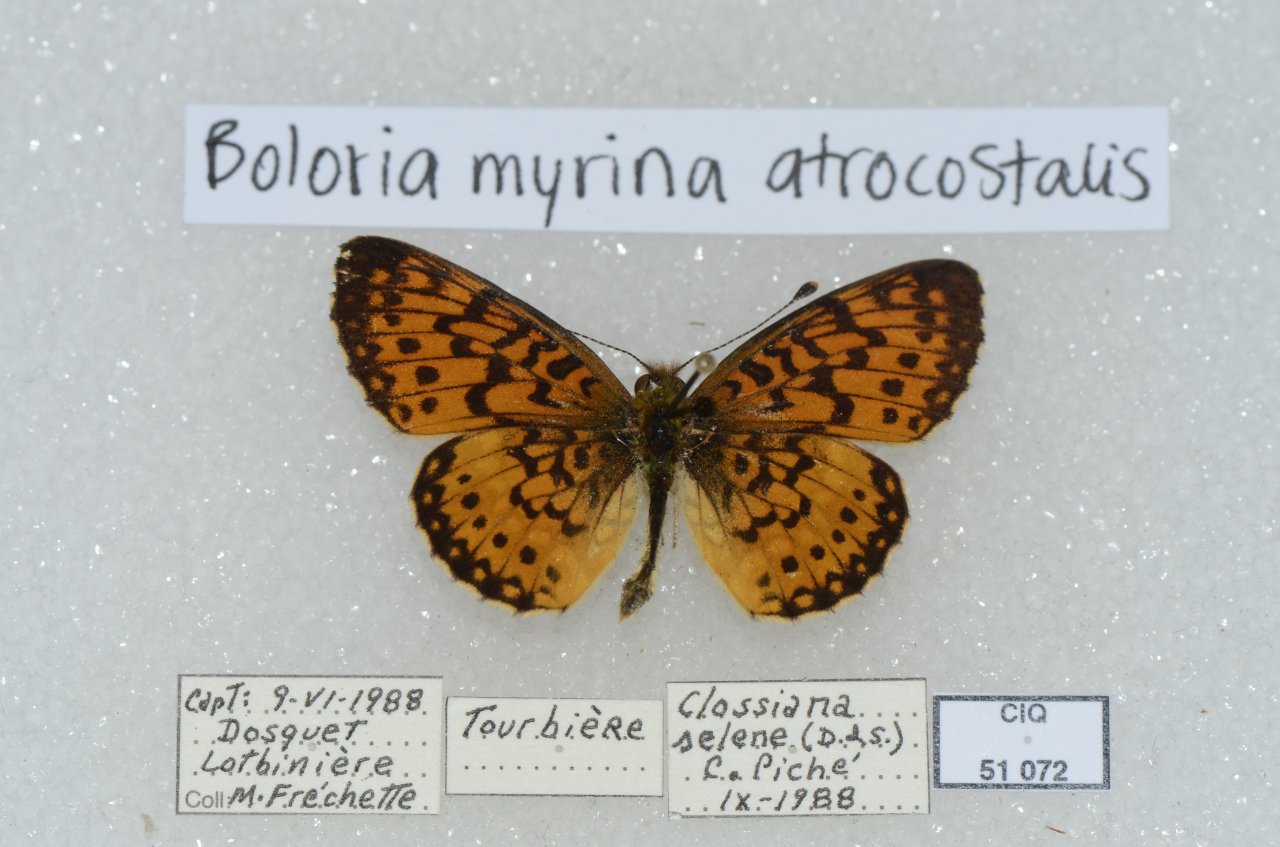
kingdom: Animalia
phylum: Arthropoda
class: Insecta
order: Lepidoptera
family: Nymphalidae
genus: Boloria
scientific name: Boloria selene
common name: Silver-bordered Fritillary
